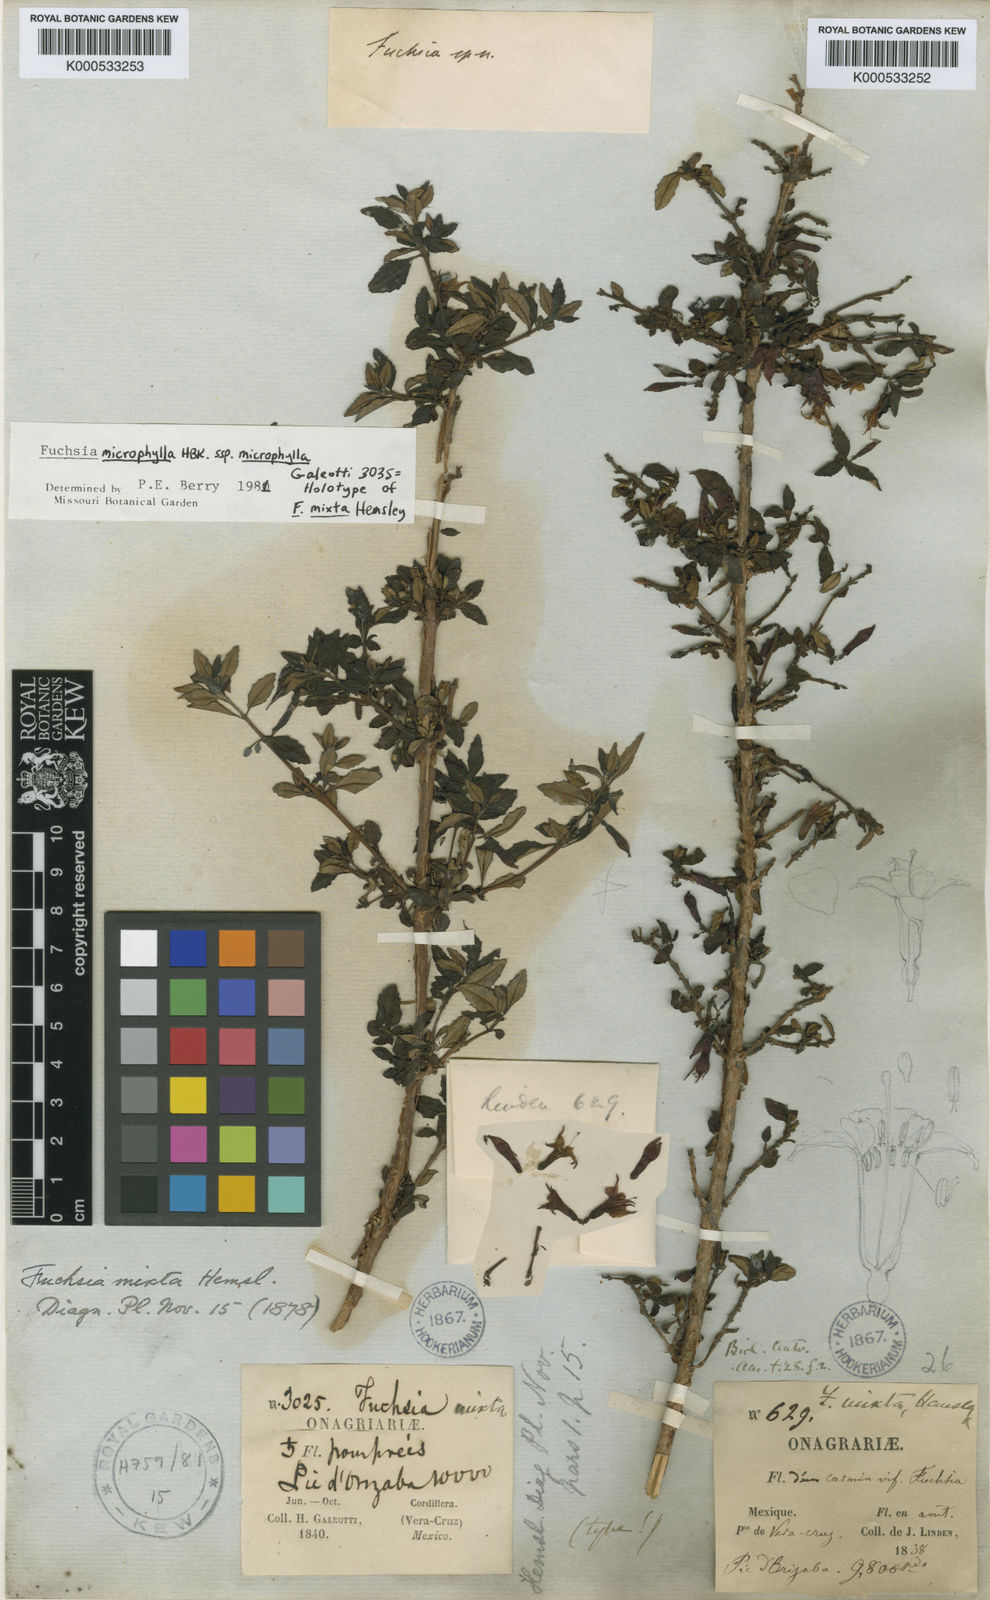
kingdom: Plantae
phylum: Tracheophyta
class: Magnoliopsida
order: Myrtales
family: Onagraceae
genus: Fuchsia
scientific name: Fuchsia microphylla
